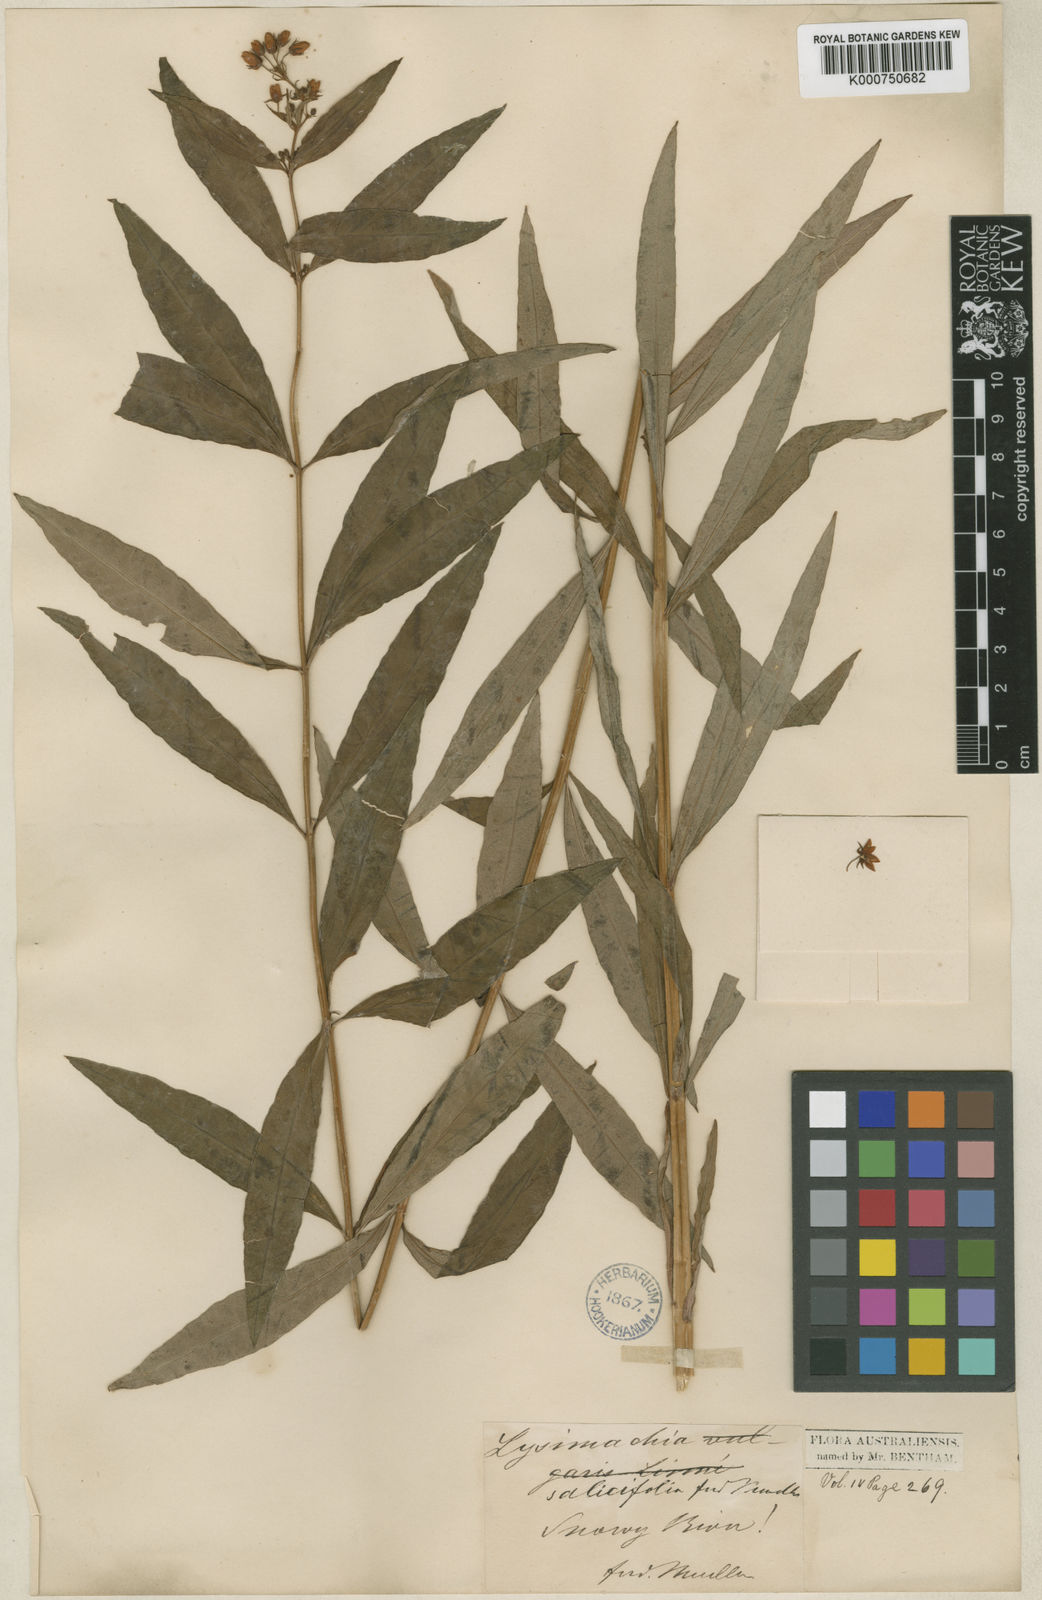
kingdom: Plantae
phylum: Tracheophyta
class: Magnoliopsida
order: Ericales
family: Primulaceae
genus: Lysimachia
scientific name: Lysimachia salicifolia
